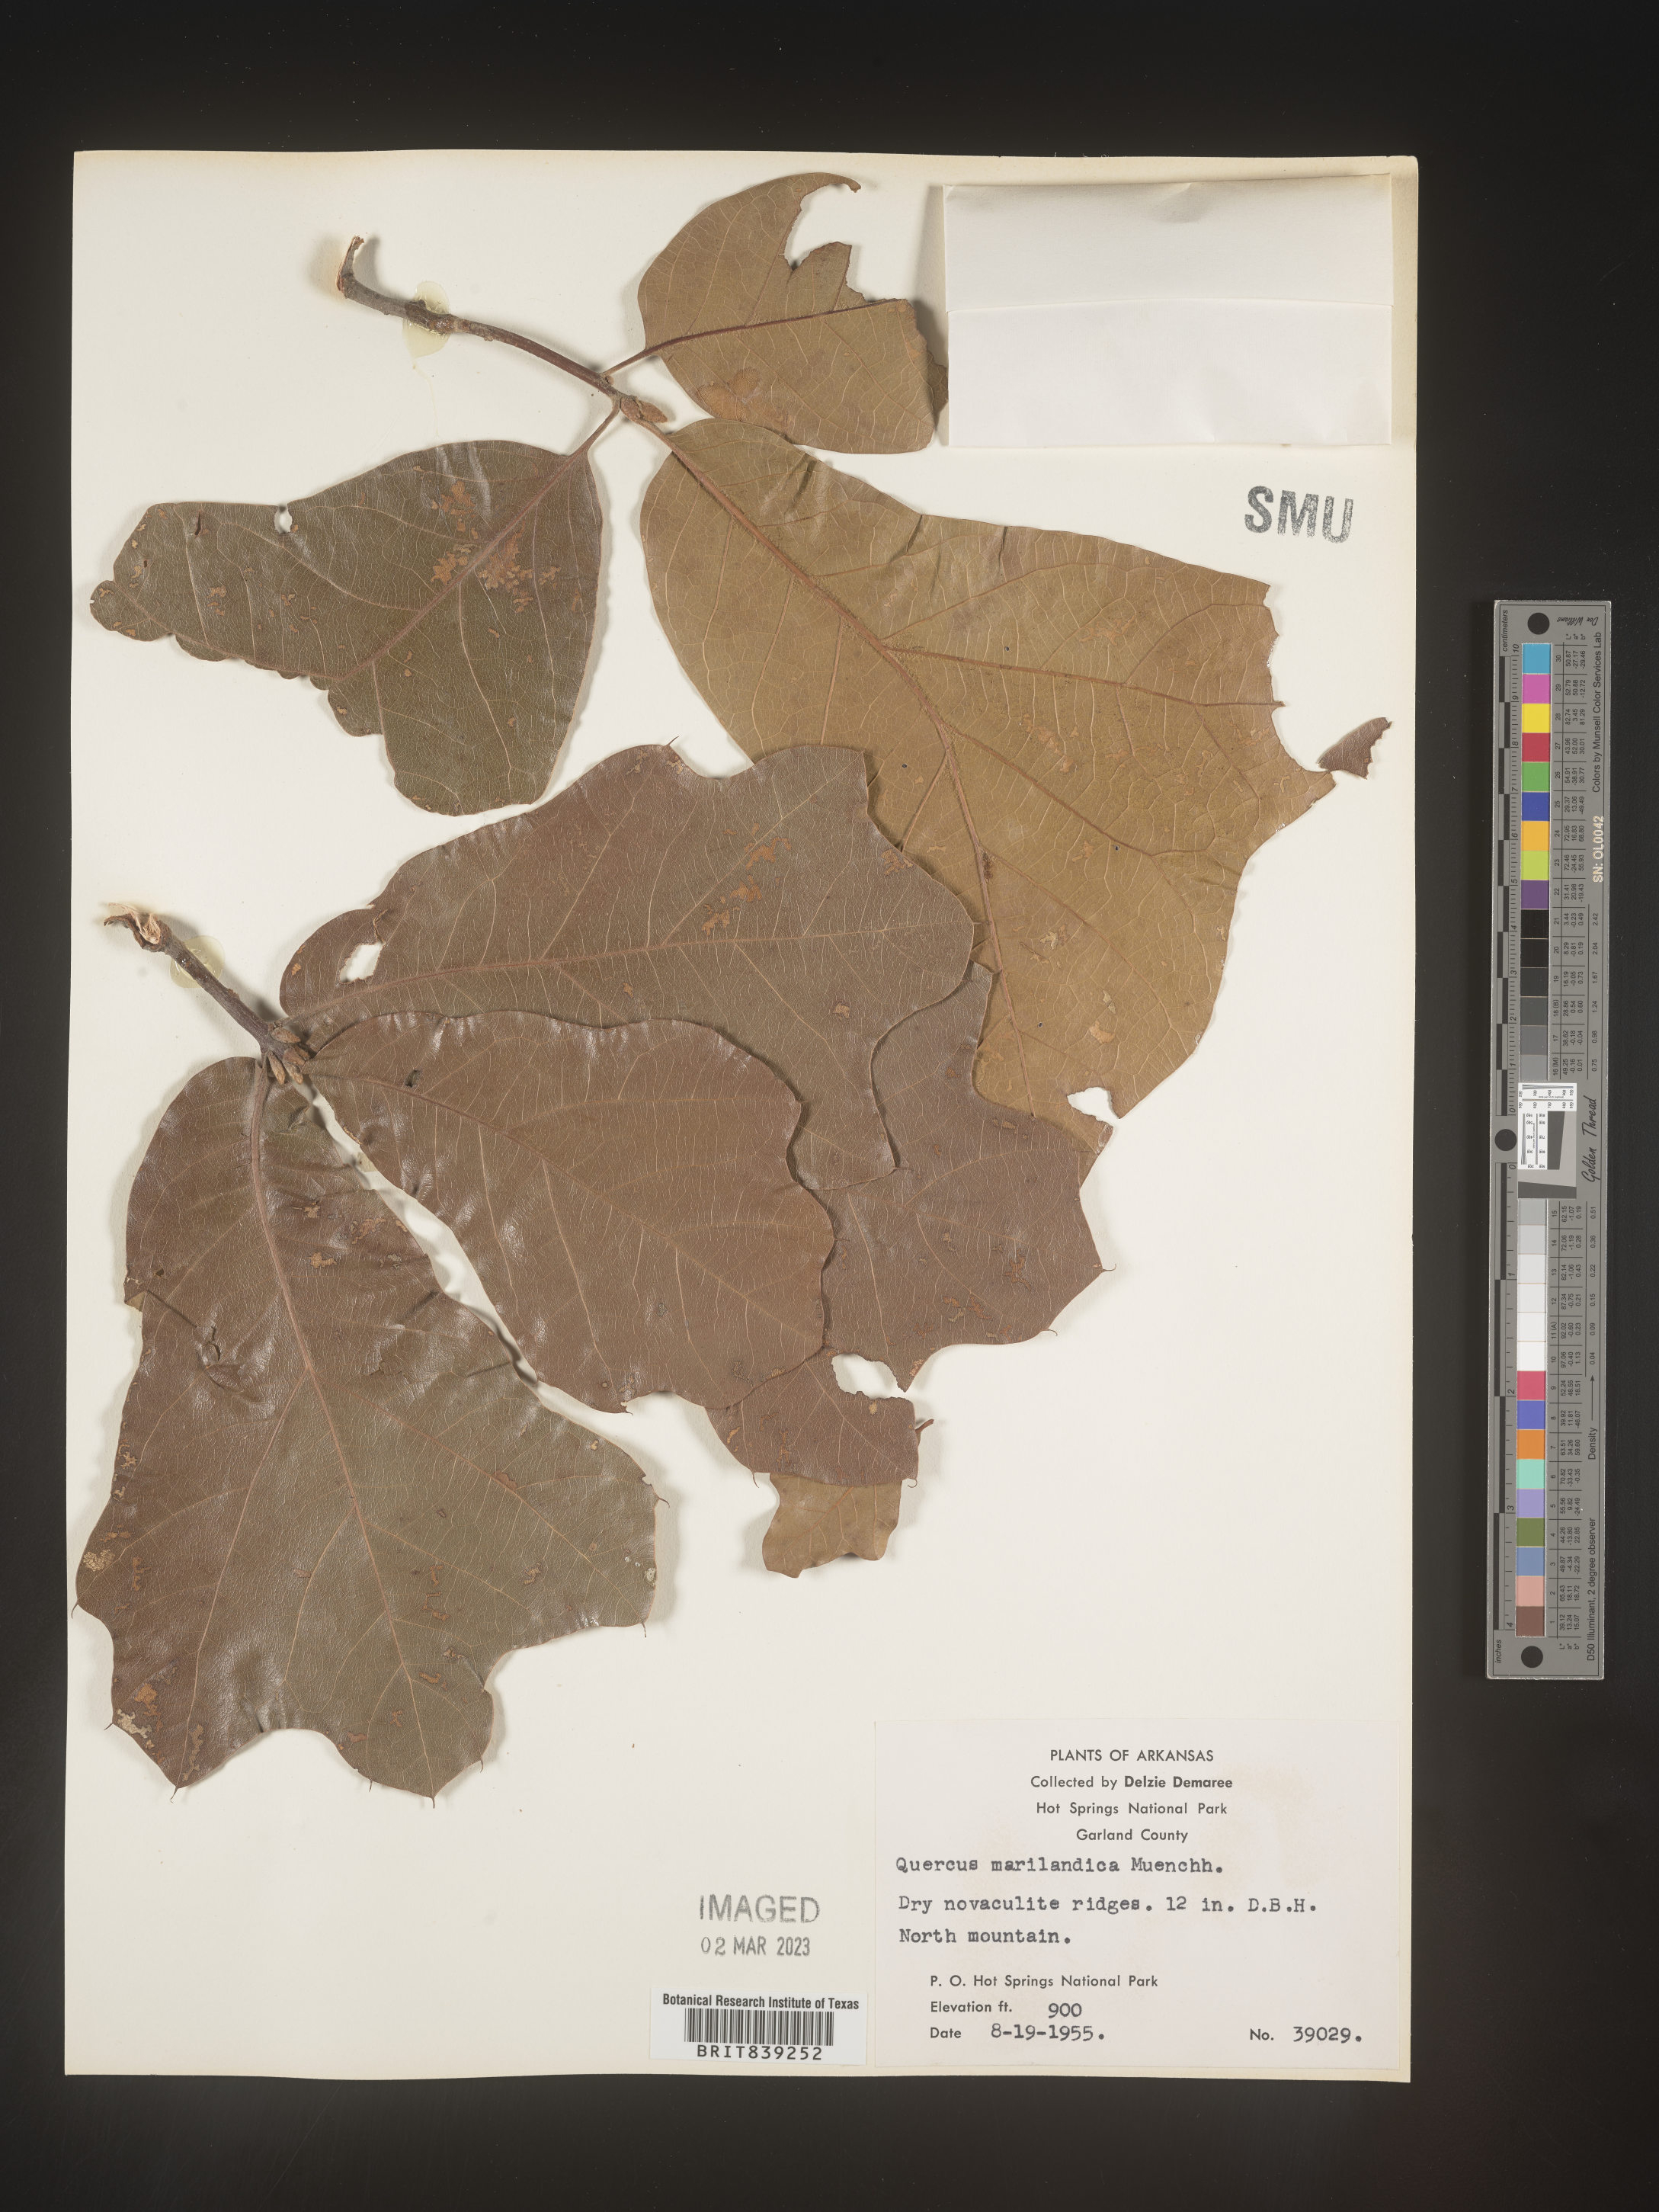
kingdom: Plantae
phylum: Tracheophyta
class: Magnoliopsida
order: Fagales
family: Fagaceae
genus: Quercus
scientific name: Quercus marilandica
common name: Blackjack oak
